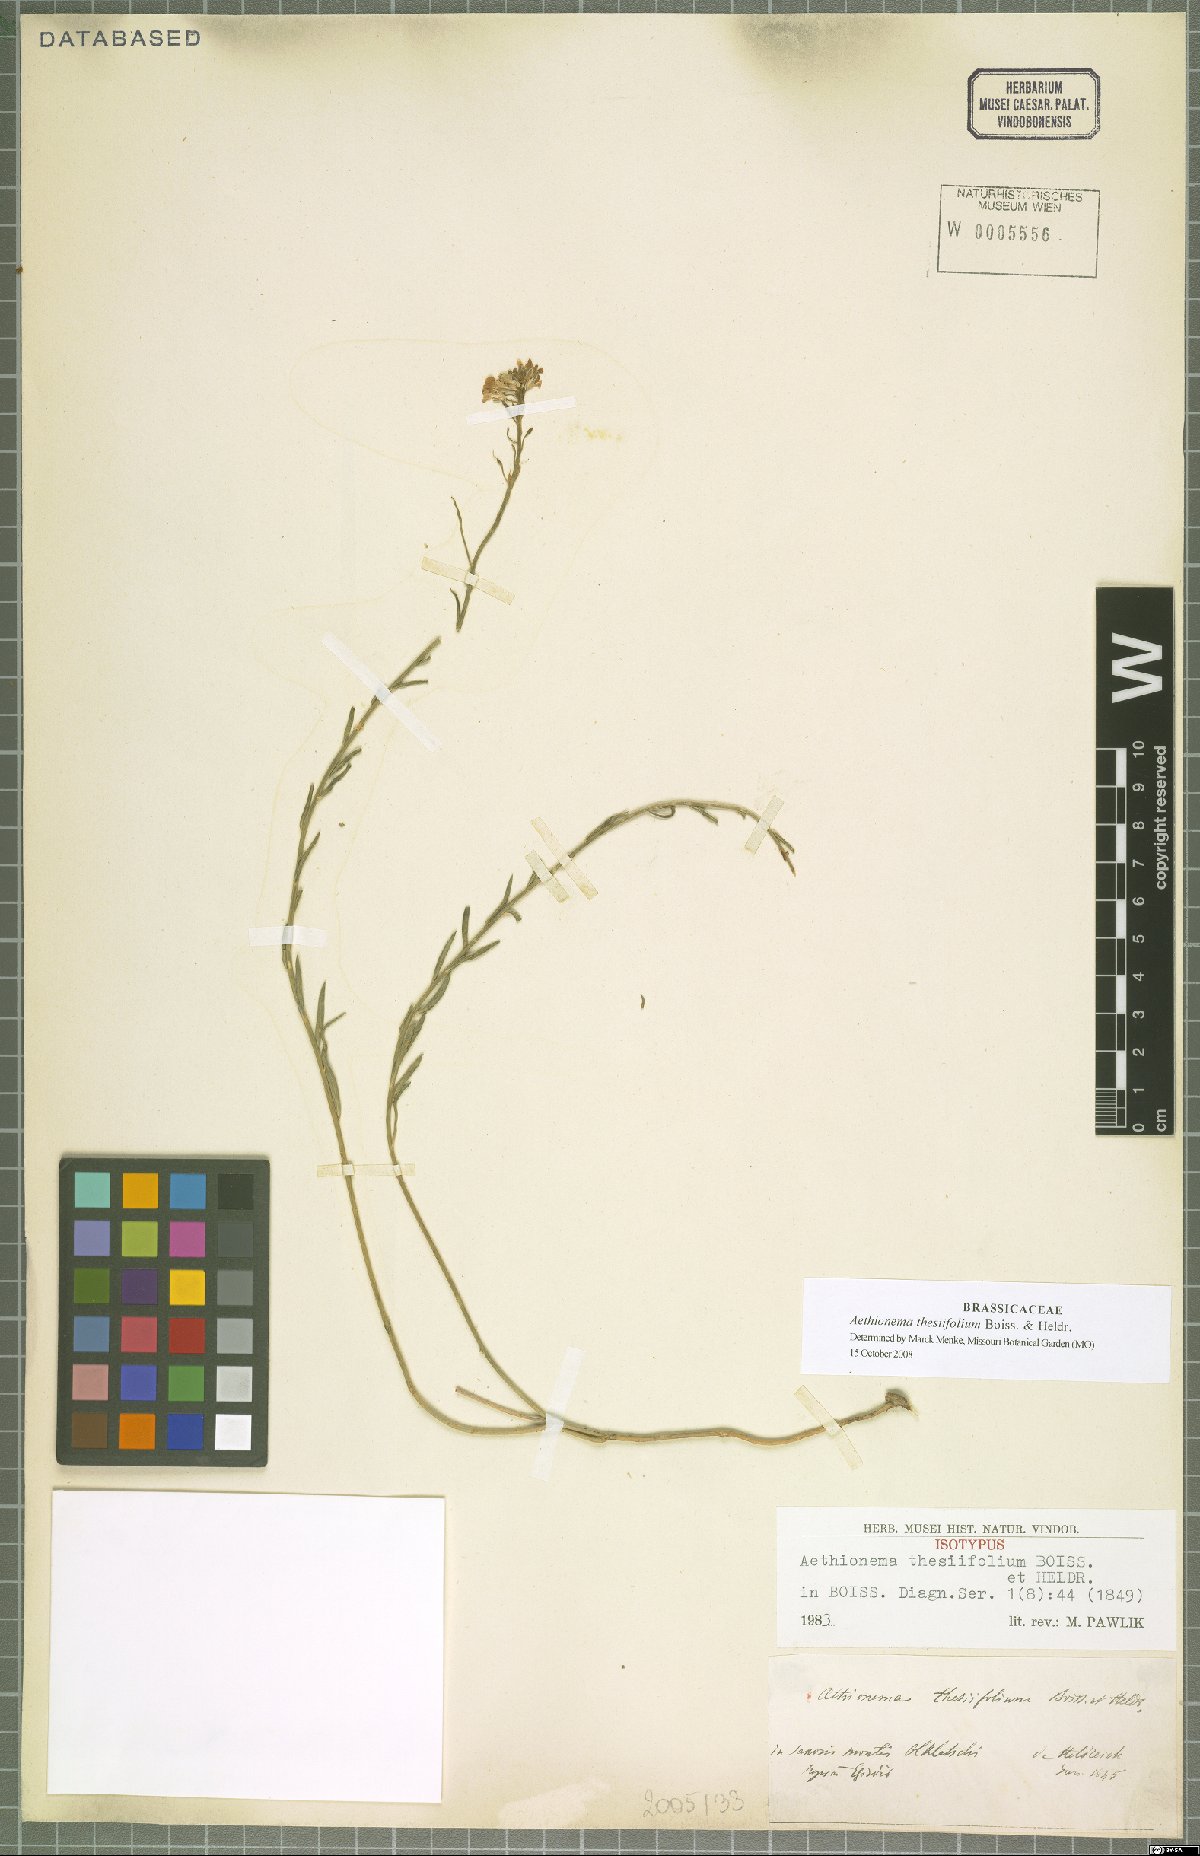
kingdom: Plantae
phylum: Tracheophyta
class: Magnoliopsida
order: Brassicales
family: Brassicaceae
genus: Aethionema
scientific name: Aethionema thesiifolium
